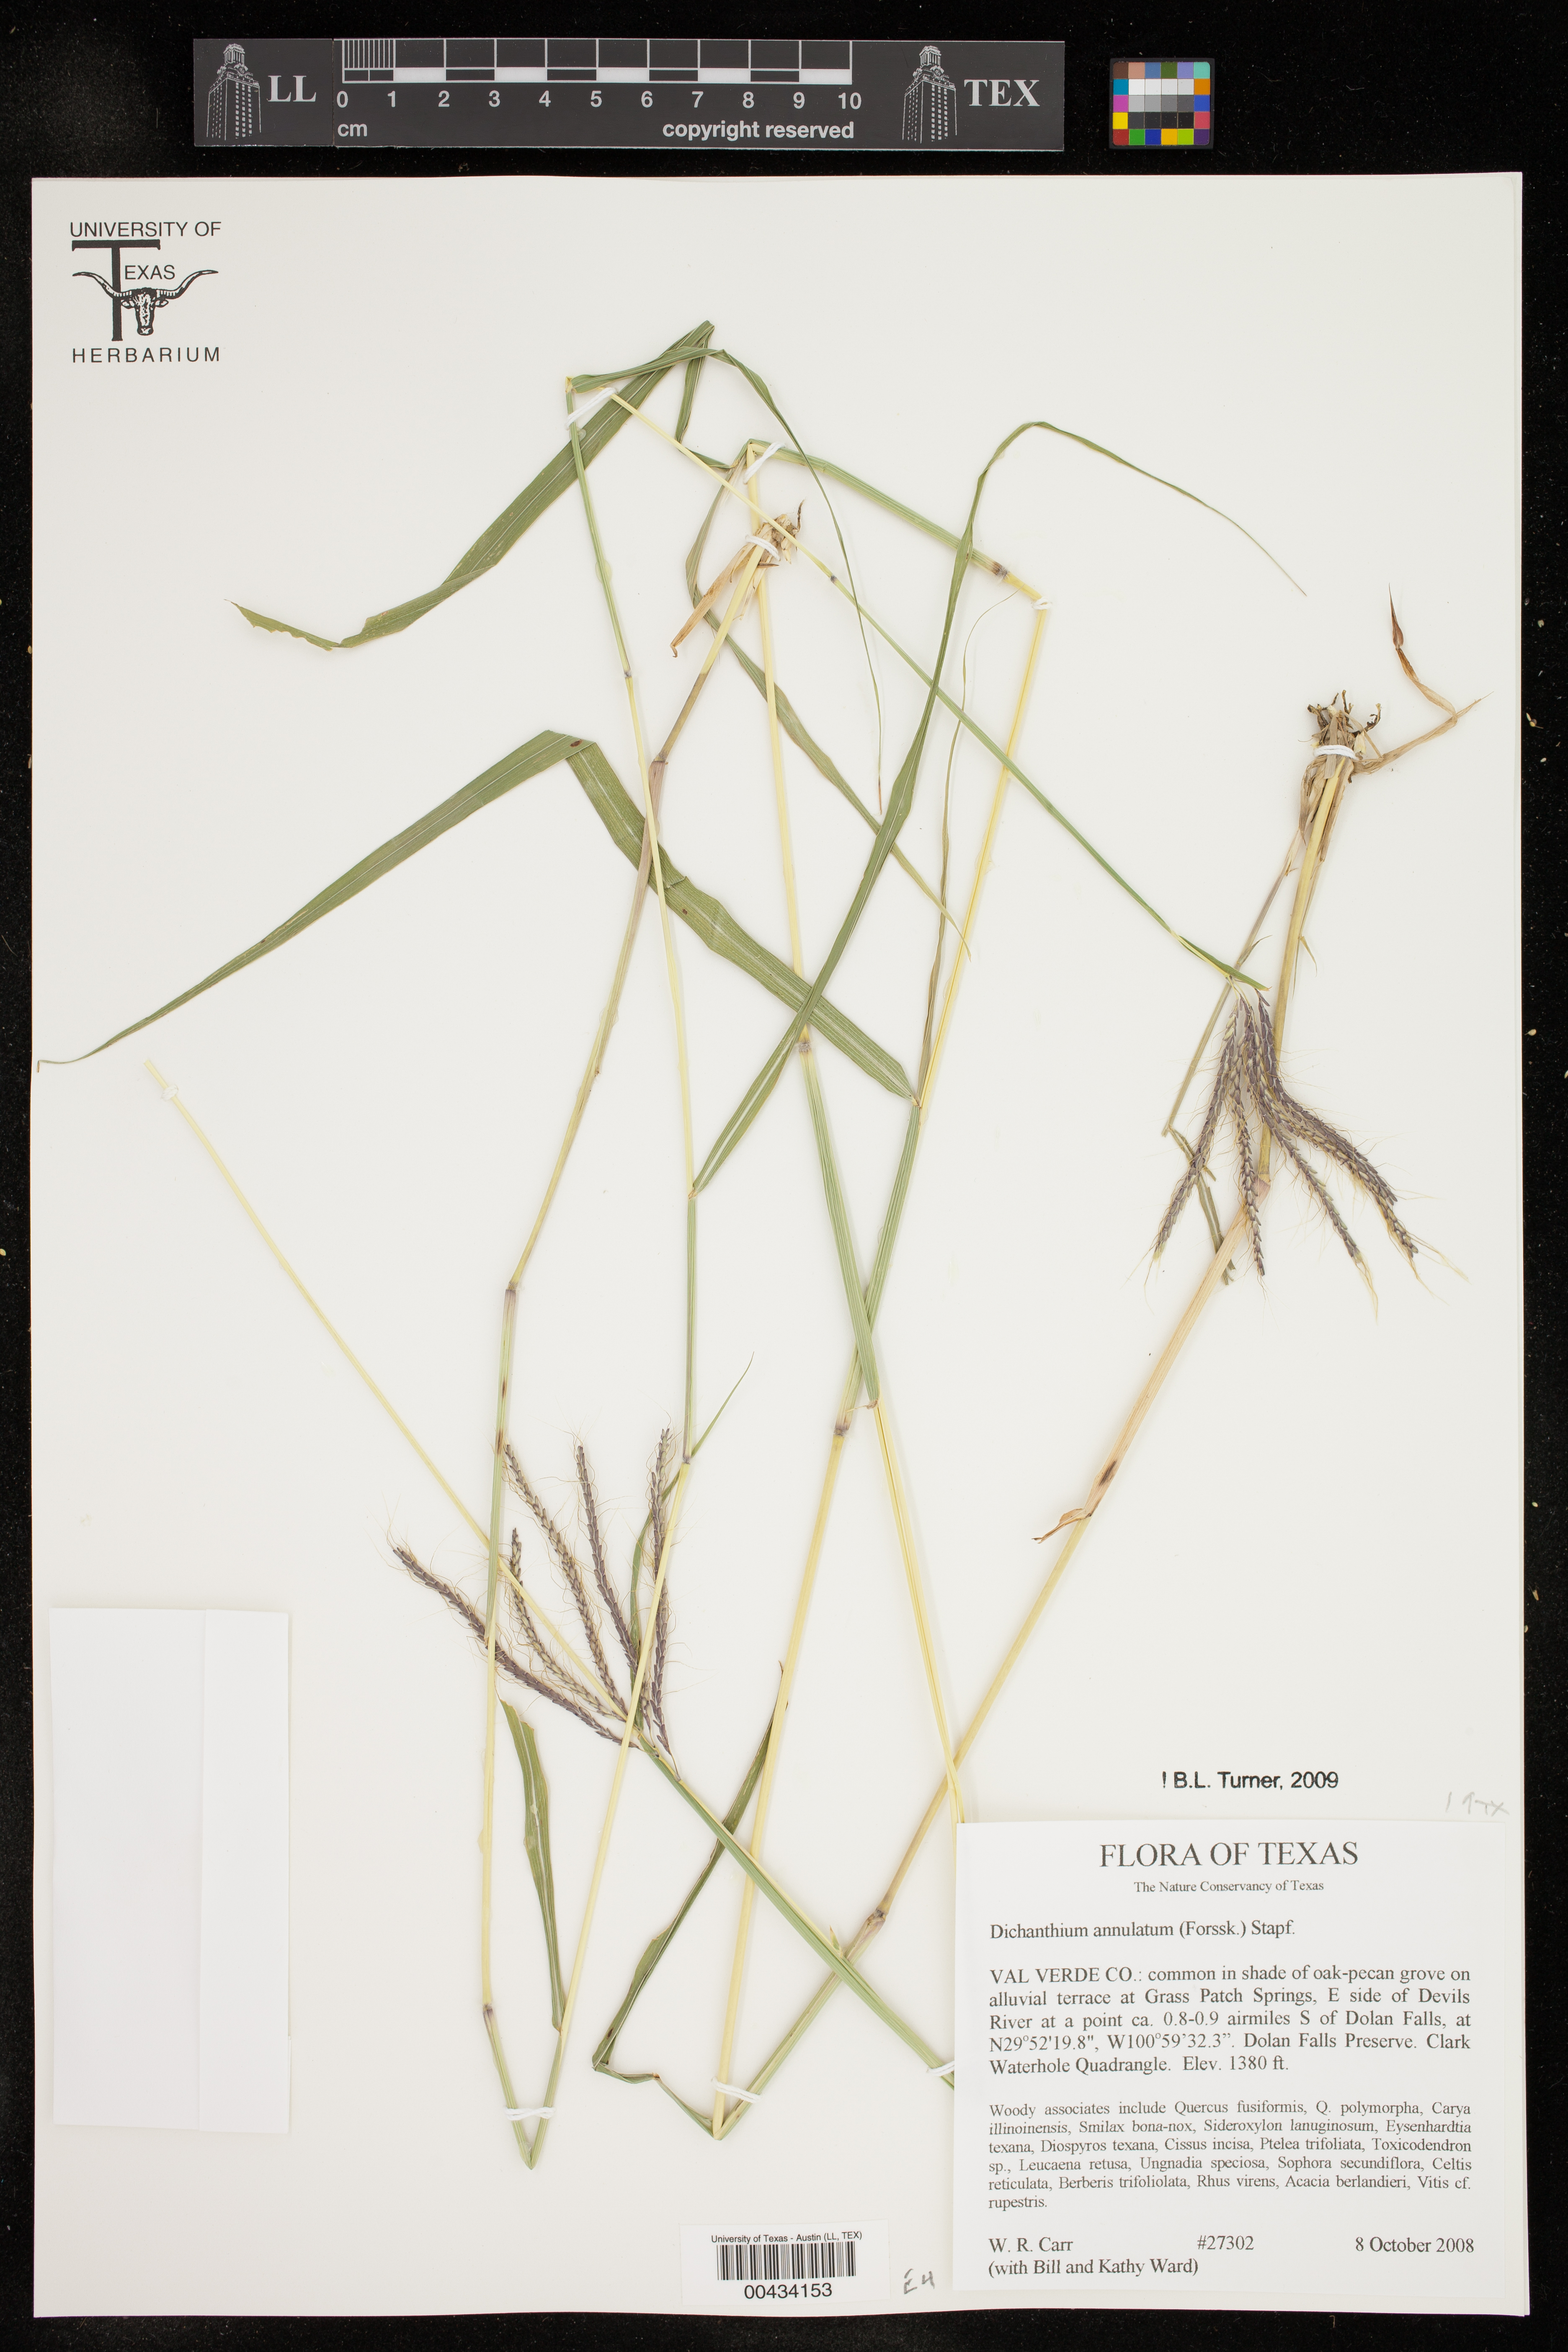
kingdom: Plantae
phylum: Tracheophyta
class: Liliopsida
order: Poales
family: Poaceae
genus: Dichanthium
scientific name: Dichanthium annulatum
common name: Kleberg's bluestem
